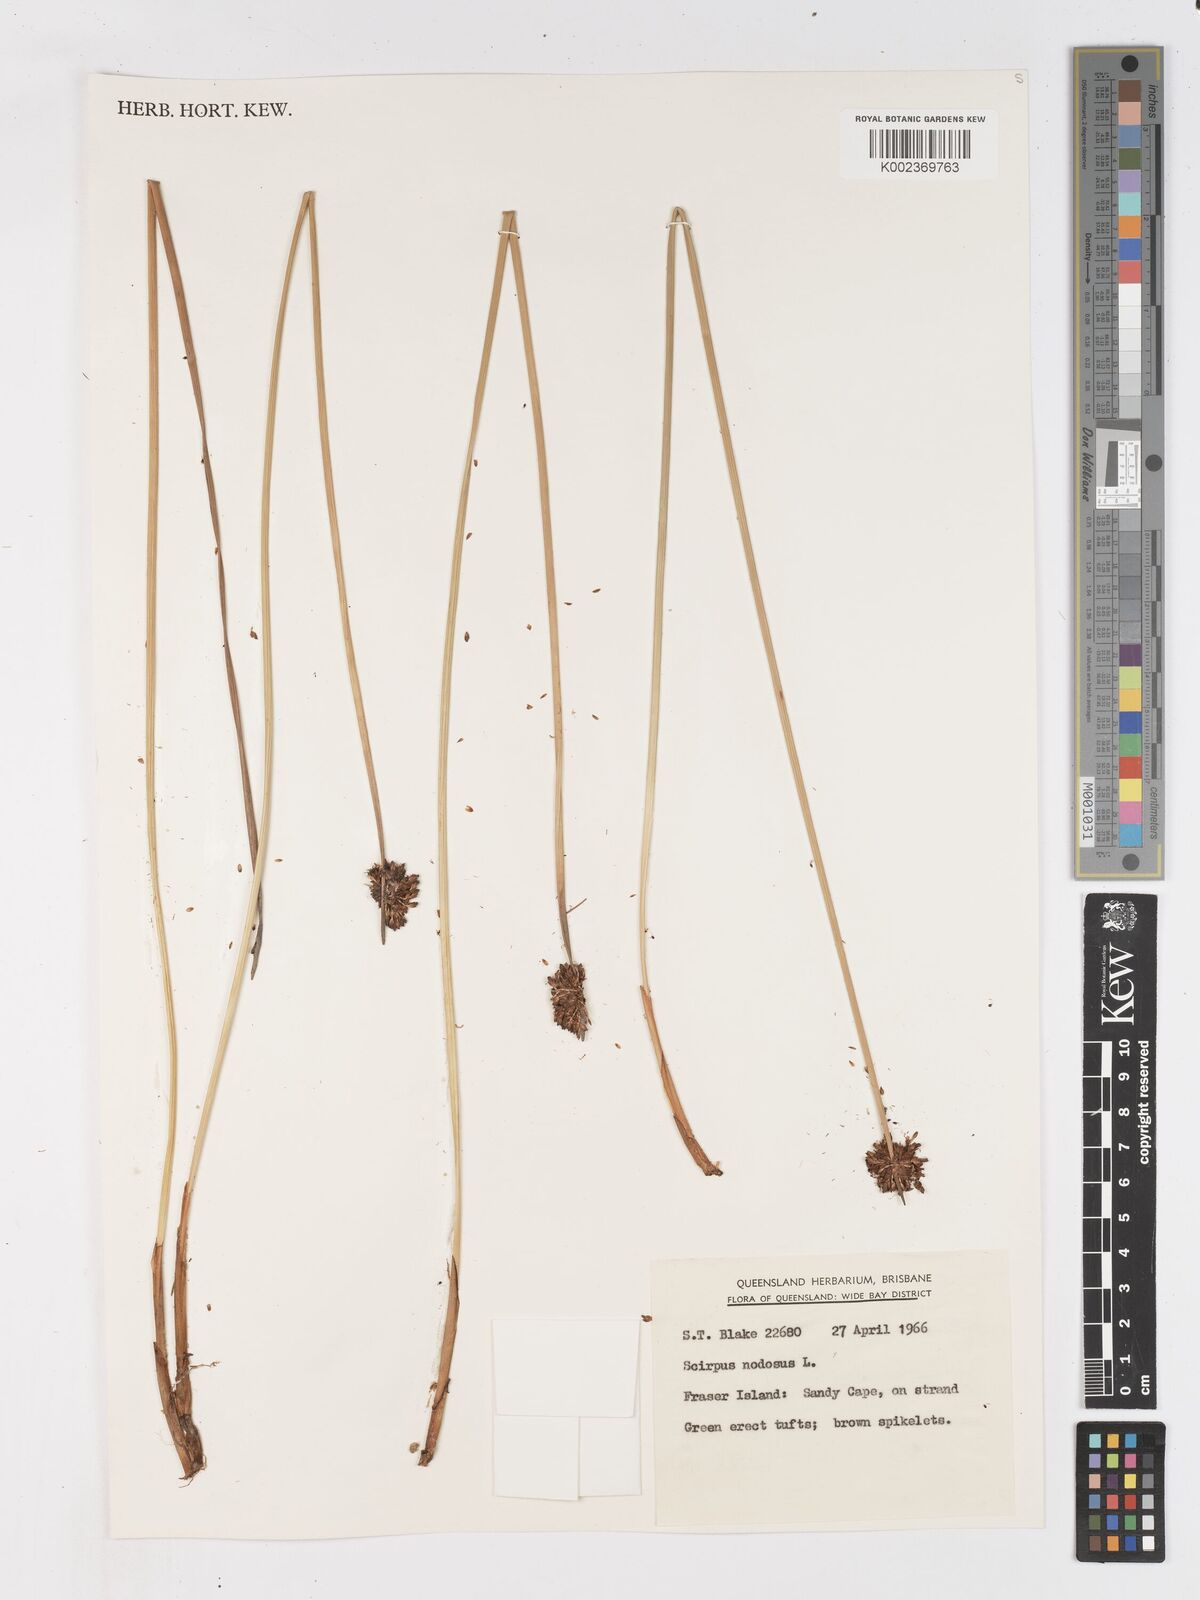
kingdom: Plantae
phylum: Tracheophyta
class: Liliopsida
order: Poales
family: Cyperaceae
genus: Ficinia
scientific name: Ficinia nodosa
